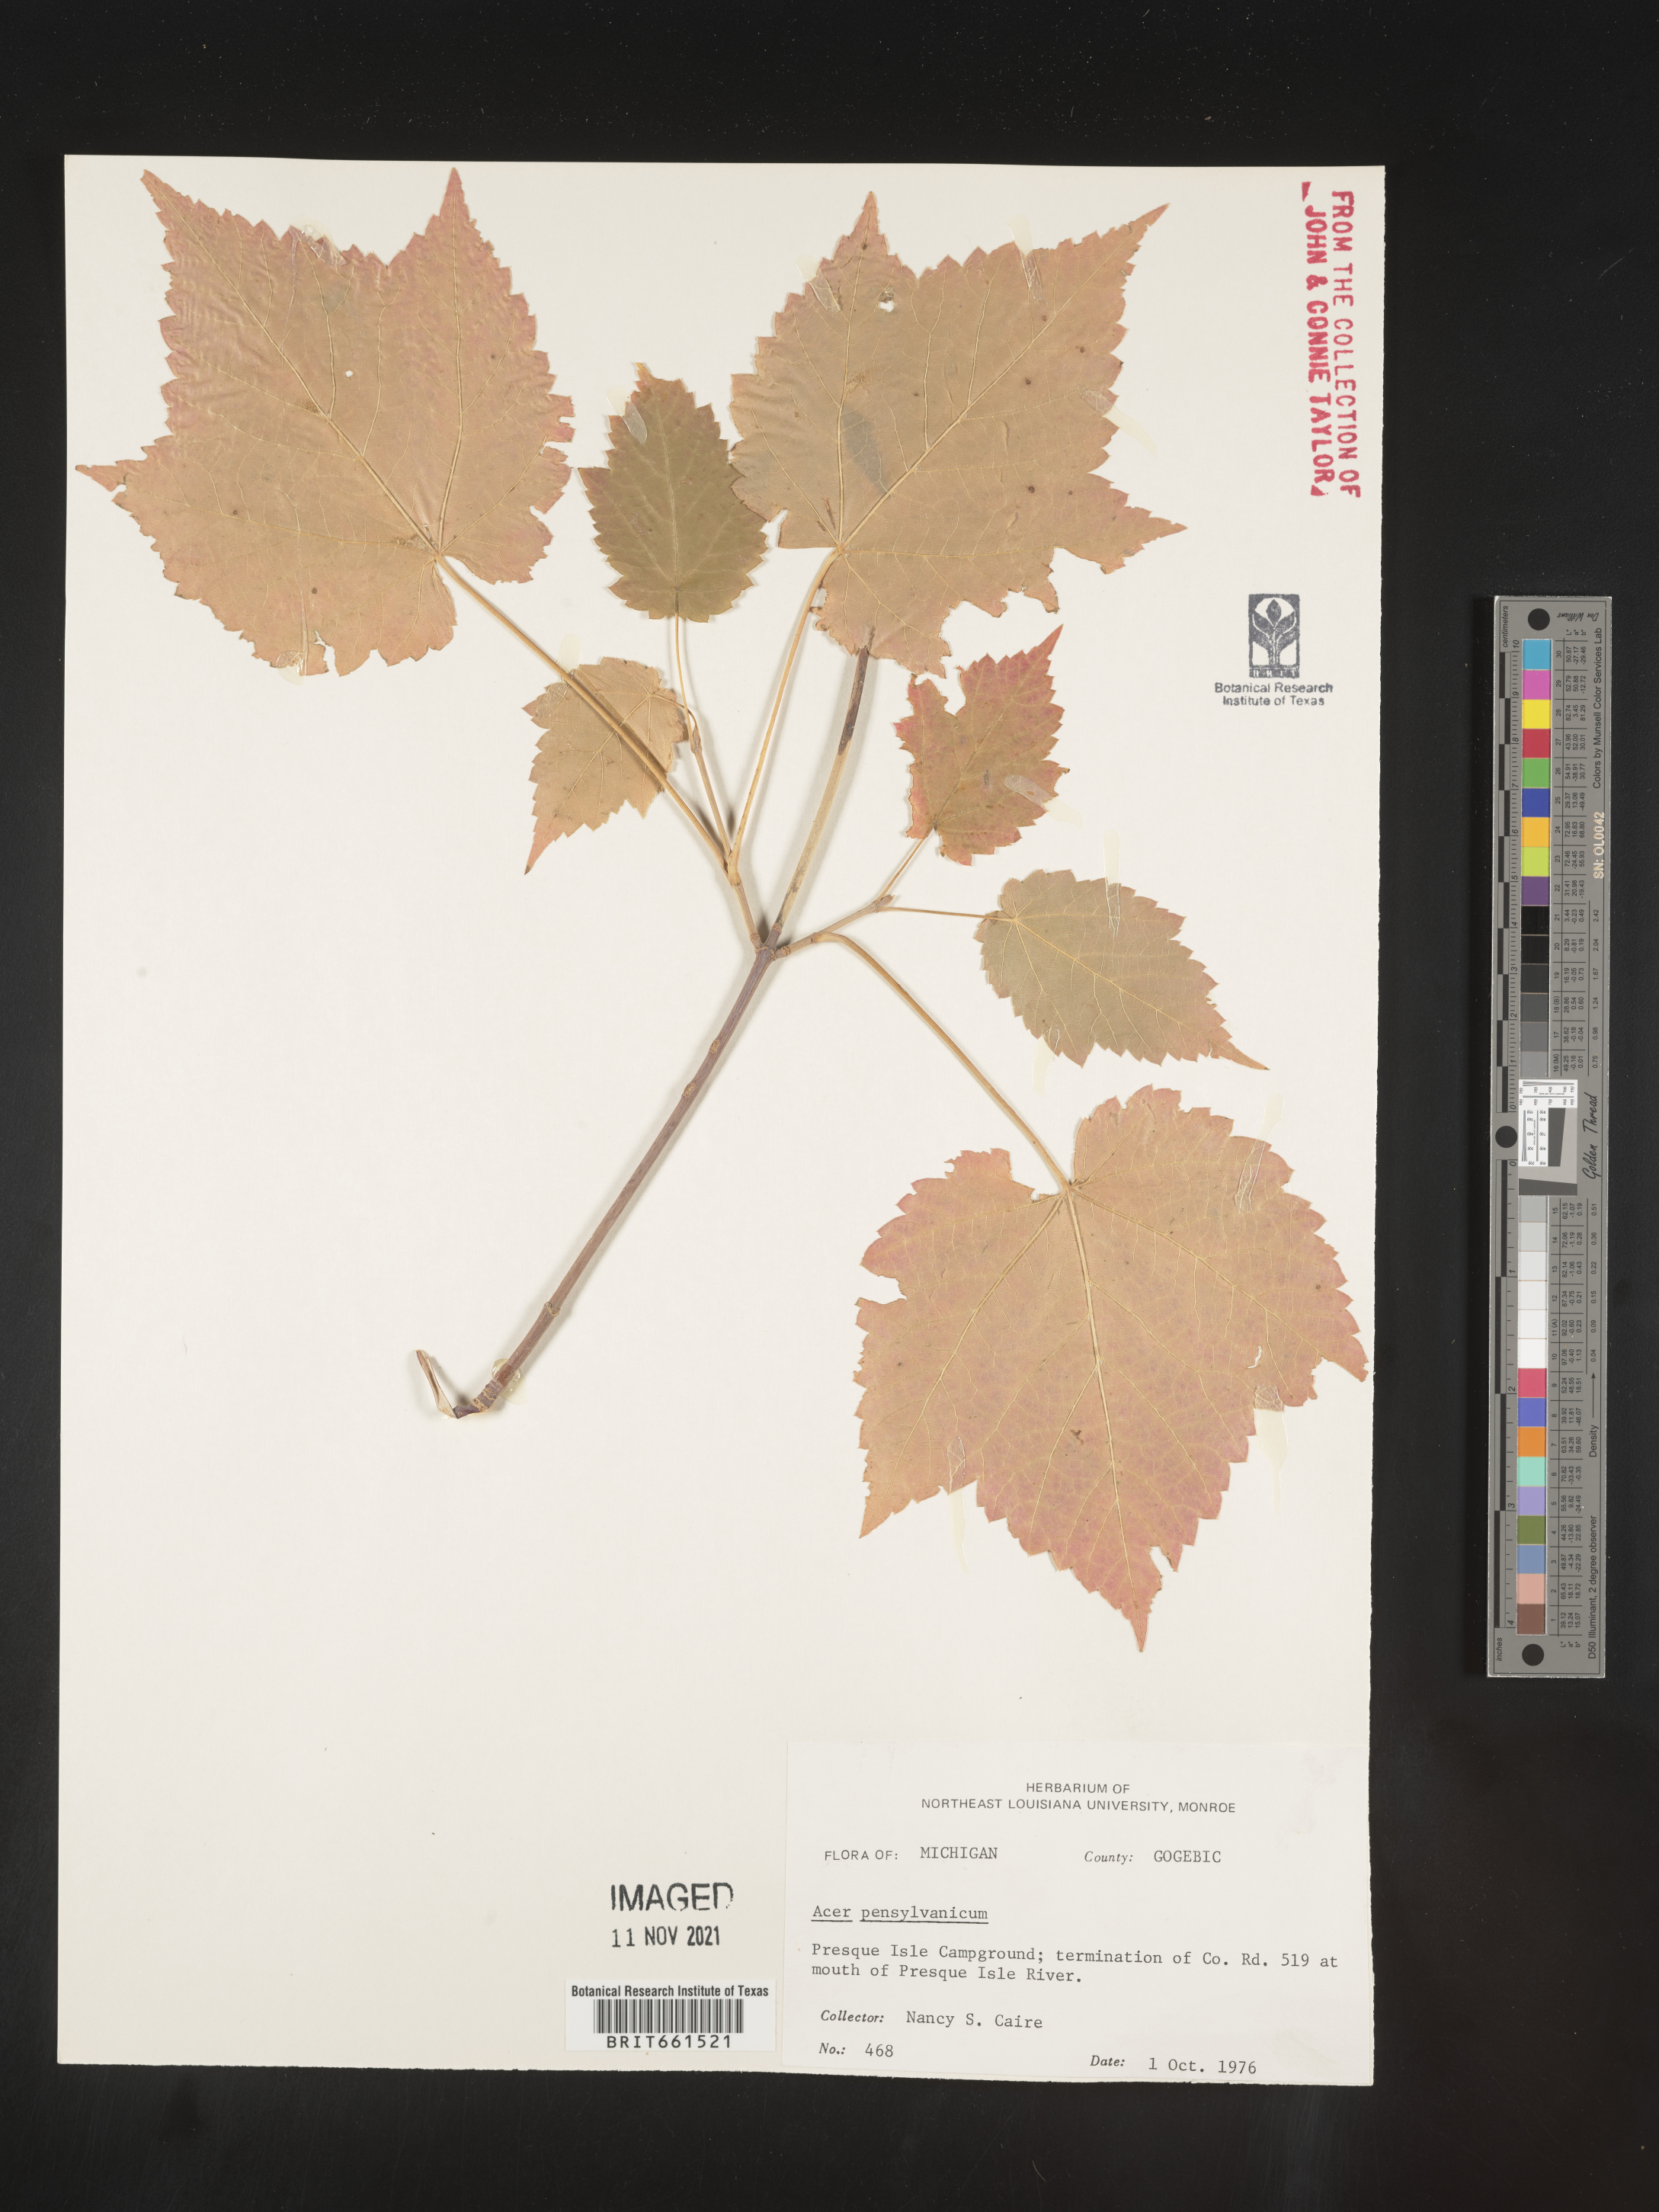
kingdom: Plantae
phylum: Tracheophyta
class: Magnoliopsida
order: Sapindales
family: Sapindaceae
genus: Acer
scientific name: Acer pensylvanicum
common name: Moosewood
